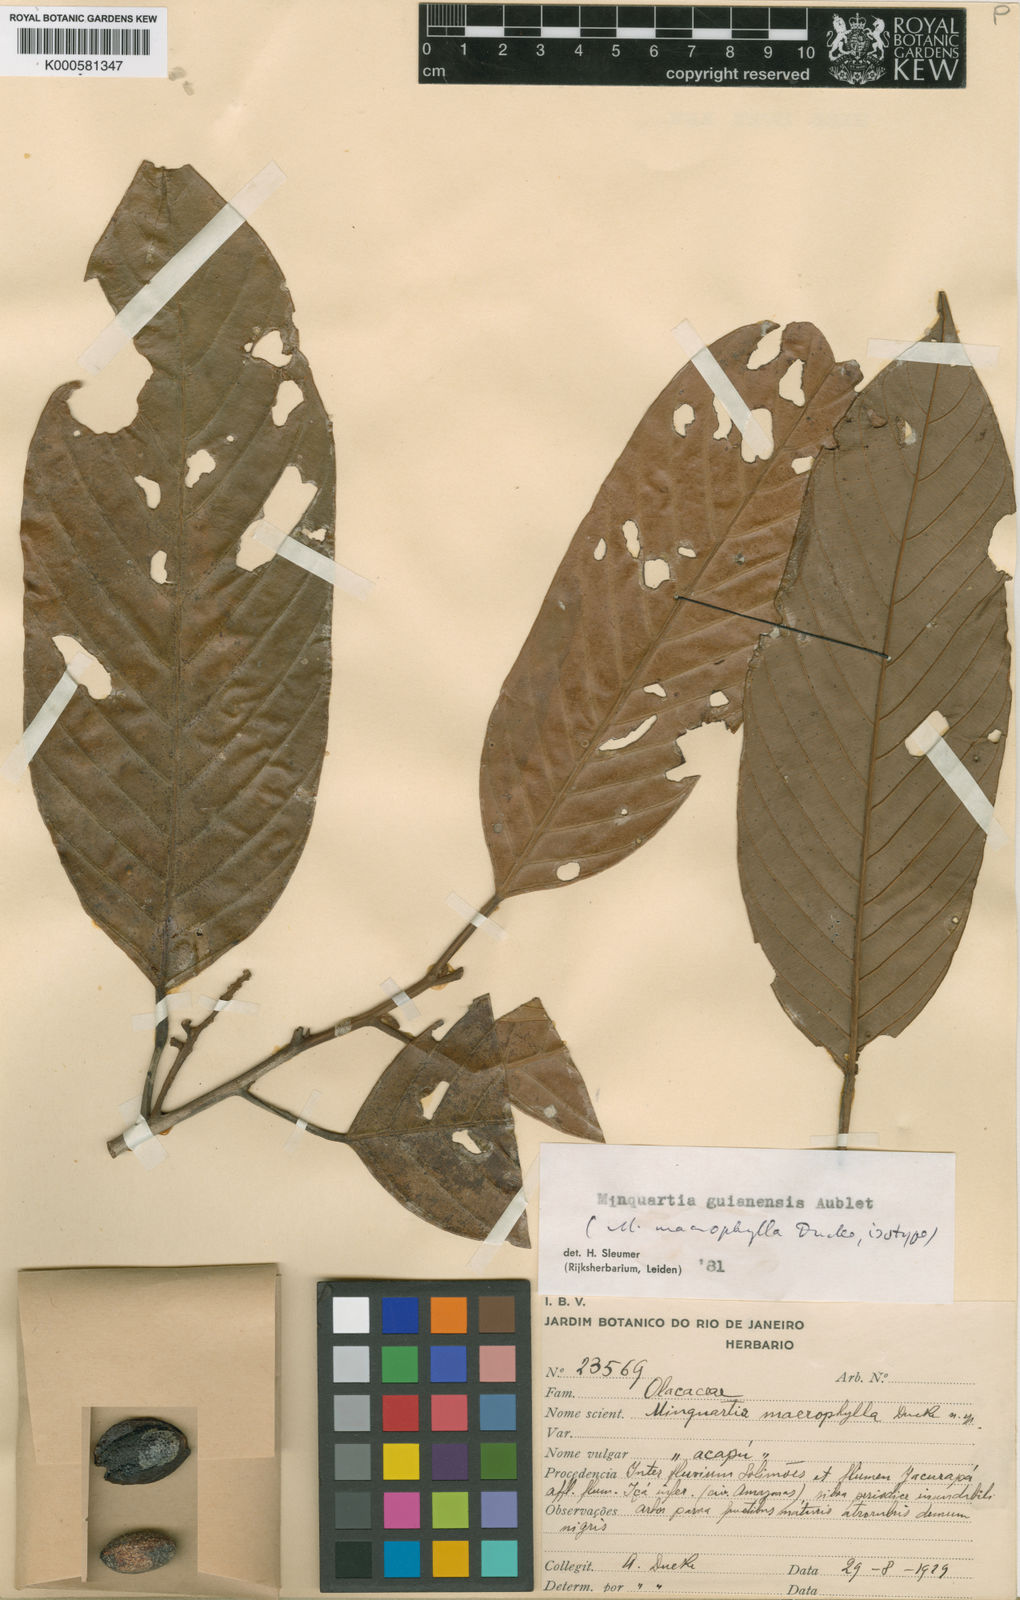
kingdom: Plantae
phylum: Tracheophyta
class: Magnoliopsida
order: Santalales
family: Coulaceae
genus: Minquartia
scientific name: Minquartia guianensis
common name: Black manwood
